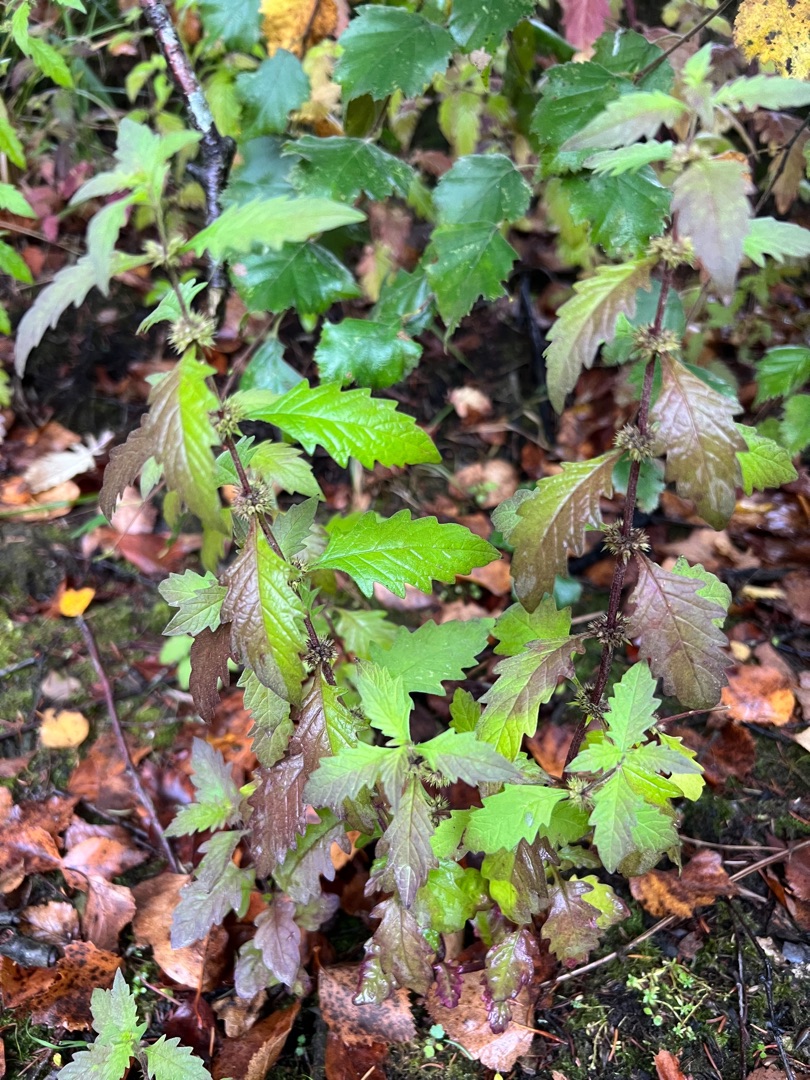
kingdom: Plantae
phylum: Tracheophyta
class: Magnoliopsida
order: Lamiales
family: Lamiaceae
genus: Lycopus
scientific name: Lycopus europaeus
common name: Sværtevæld
